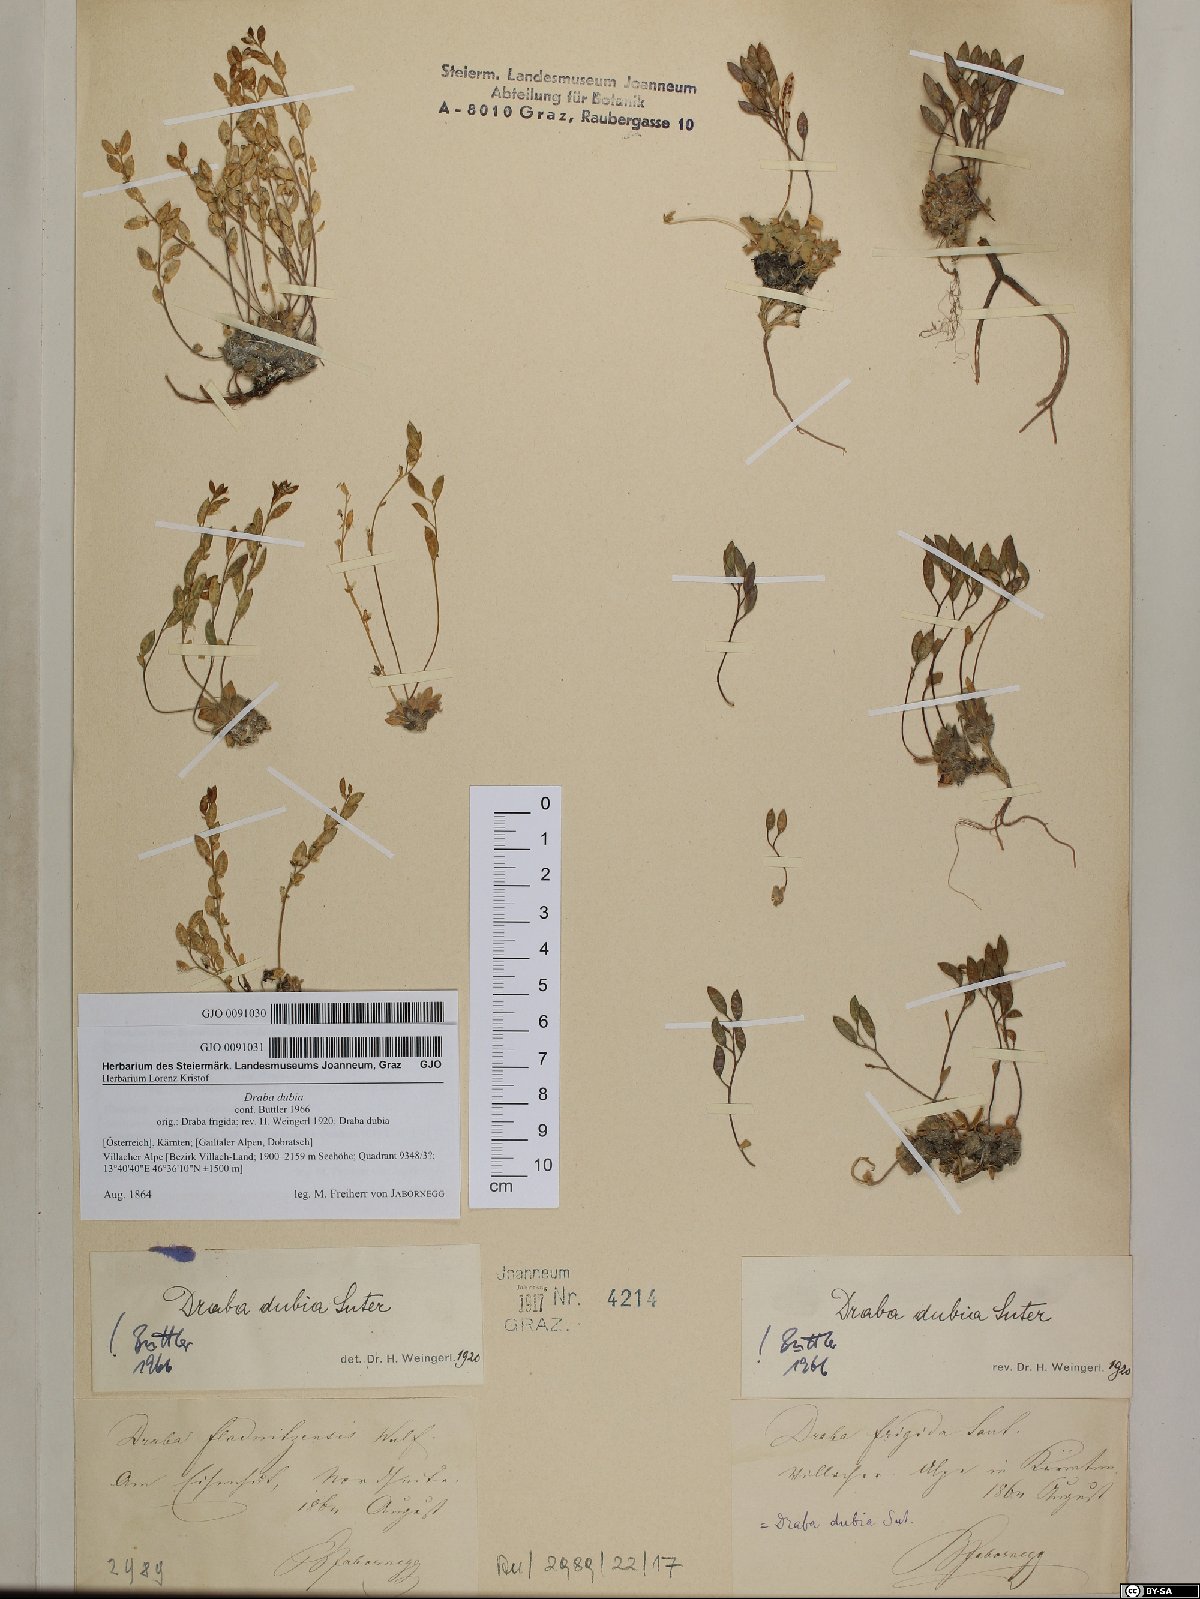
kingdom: Plantae
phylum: Tracheophyta
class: Magnoliopsida
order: Brassicales
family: Brassicaceae
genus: Draba
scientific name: Draba dubia
